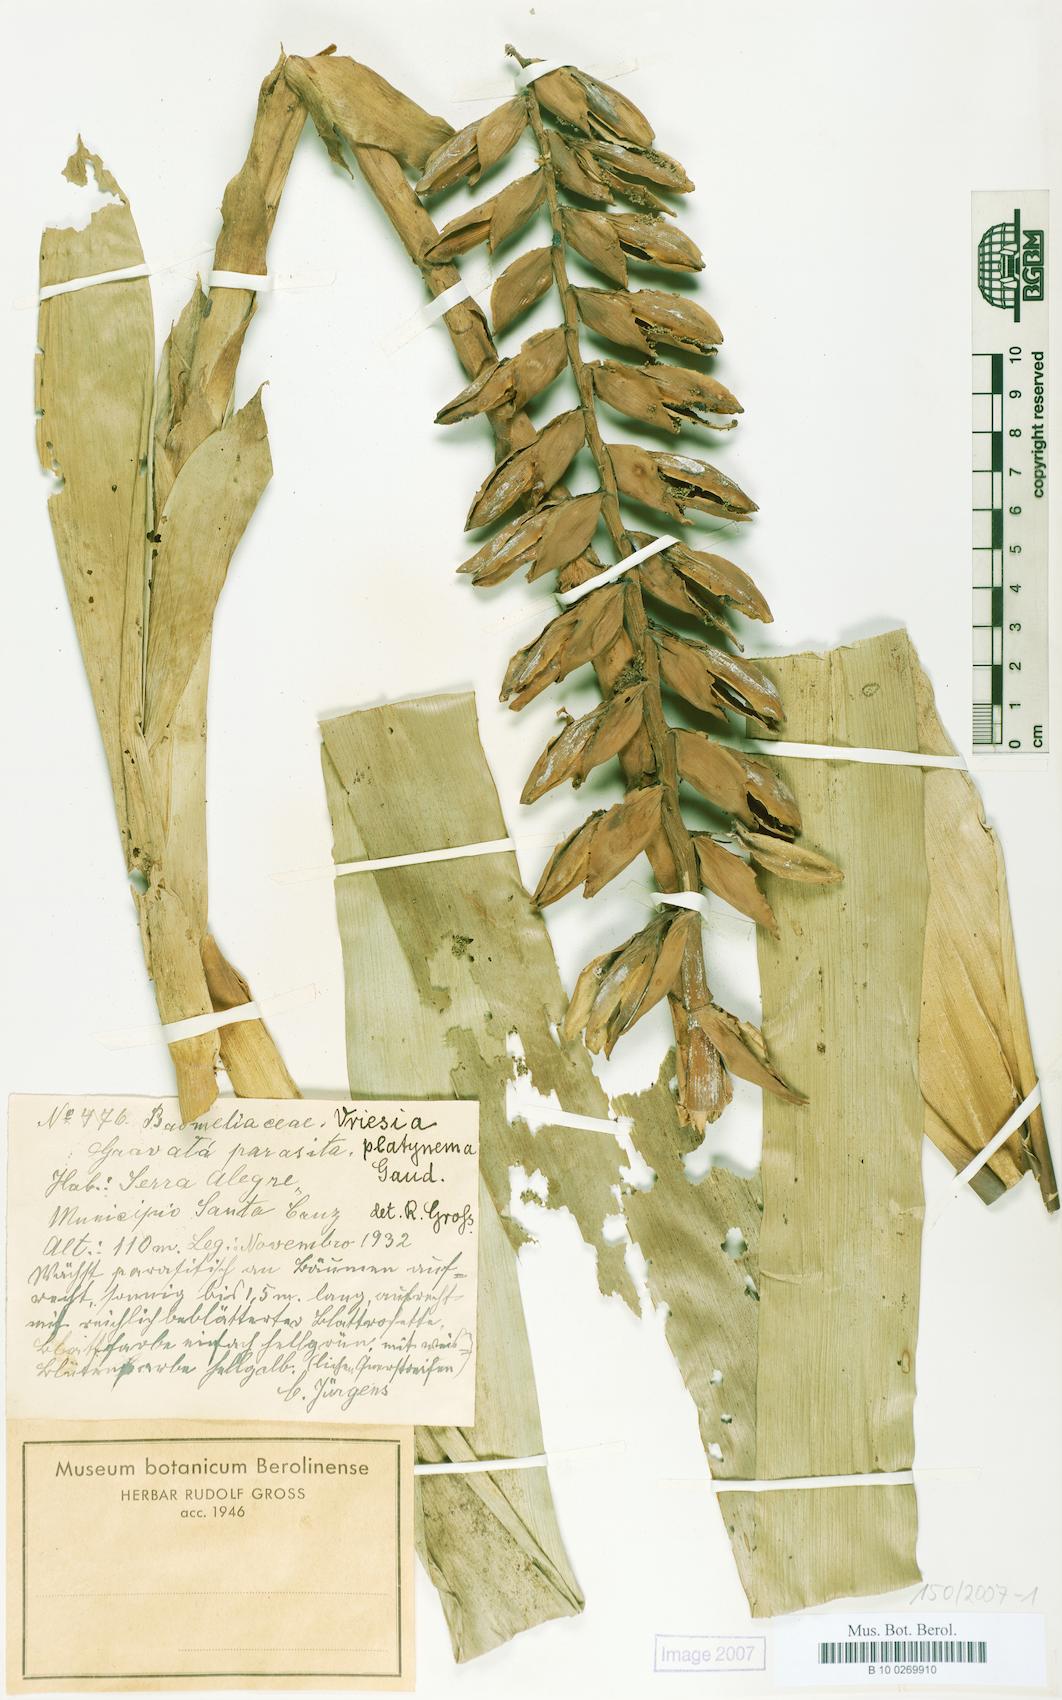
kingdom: Plantae
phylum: Tracheophyta
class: Liliopsida
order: Poales
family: Bromeliaceae
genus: Vriesea
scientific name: Vriesea platynema
